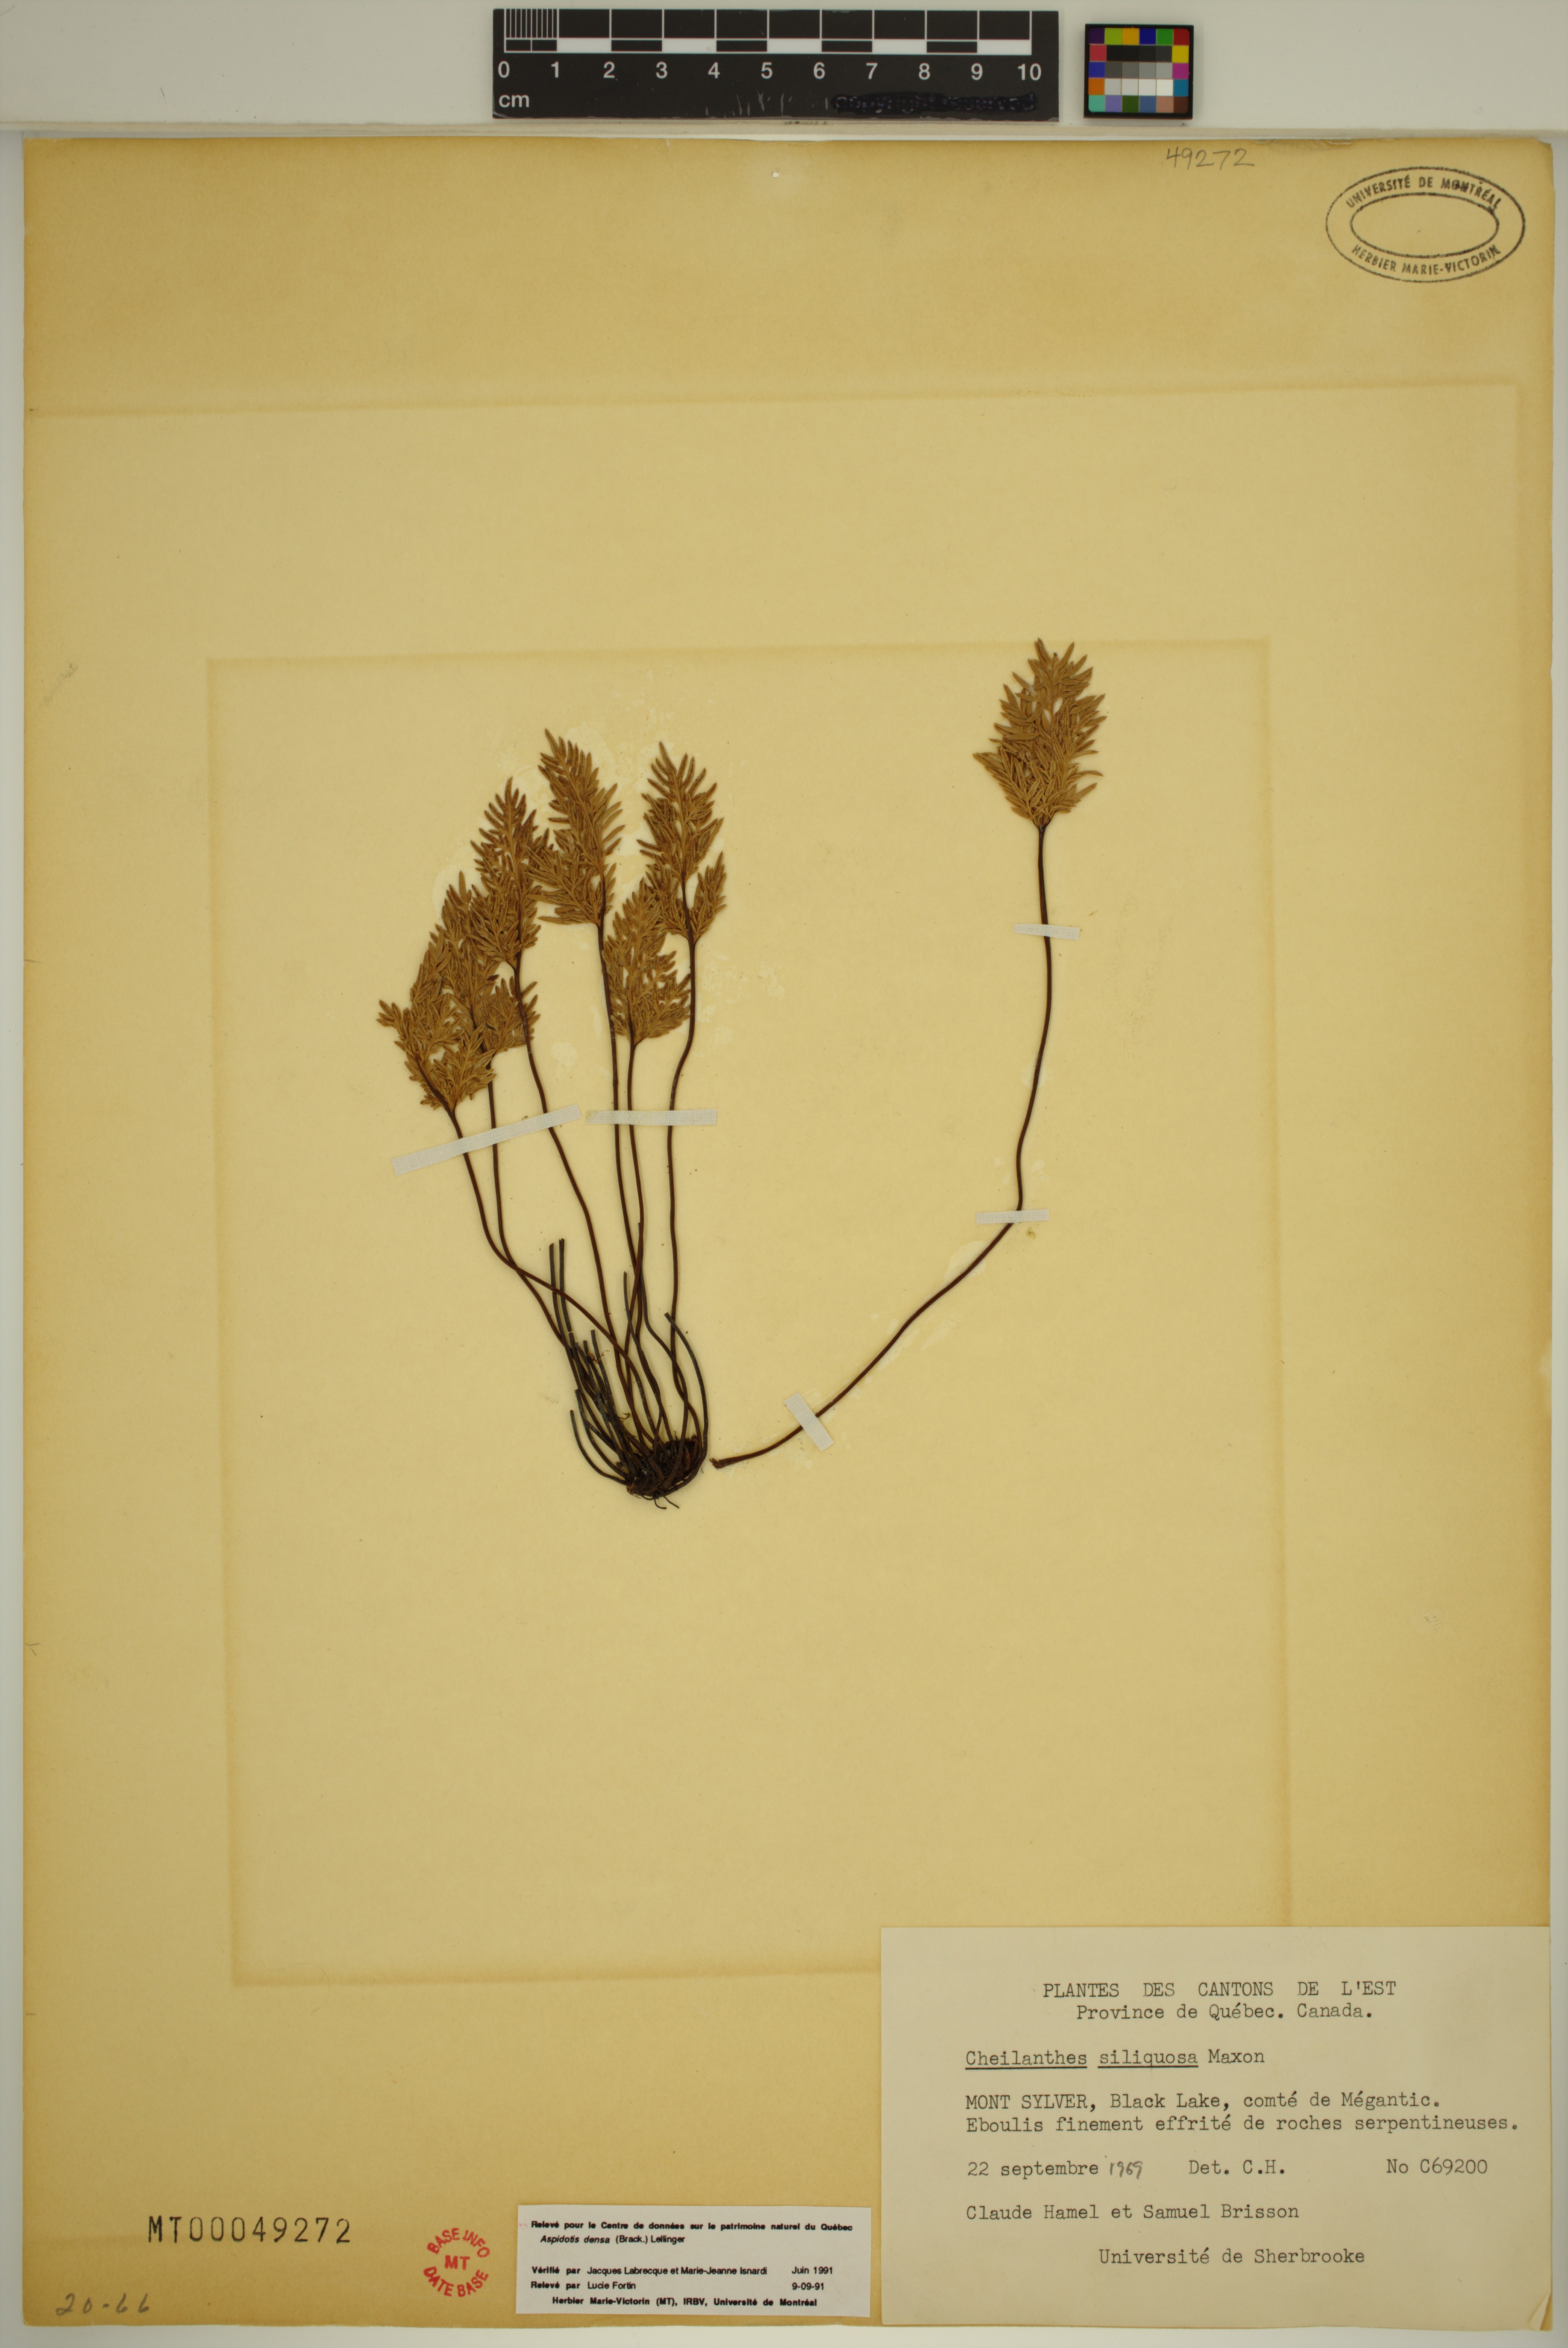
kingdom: Plantae
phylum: Tracheophyta
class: Polypodiopsida
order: Polypodiales
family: Pteridaceae
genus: Aspidotis
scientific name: Aspidotis densa
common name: Indian's dream
